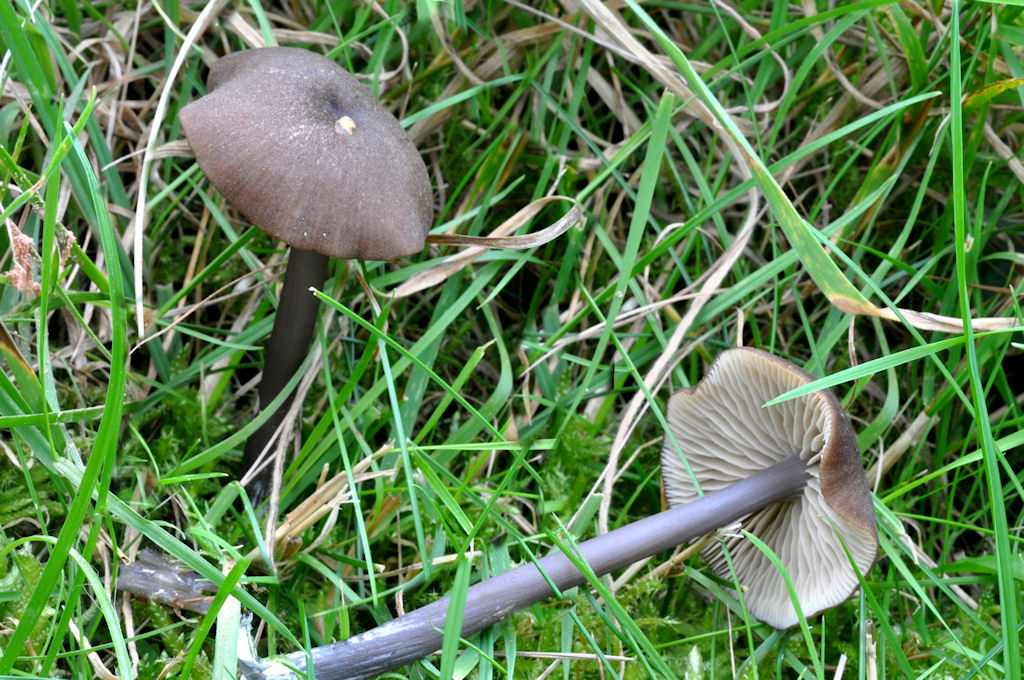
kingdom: Fungi
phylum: Basidiomycota
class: Agaricomycetes
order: Agaricales
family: Entolomataceae
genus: Entoloma
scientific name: Entoloma asprellum
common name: ru rødblad
